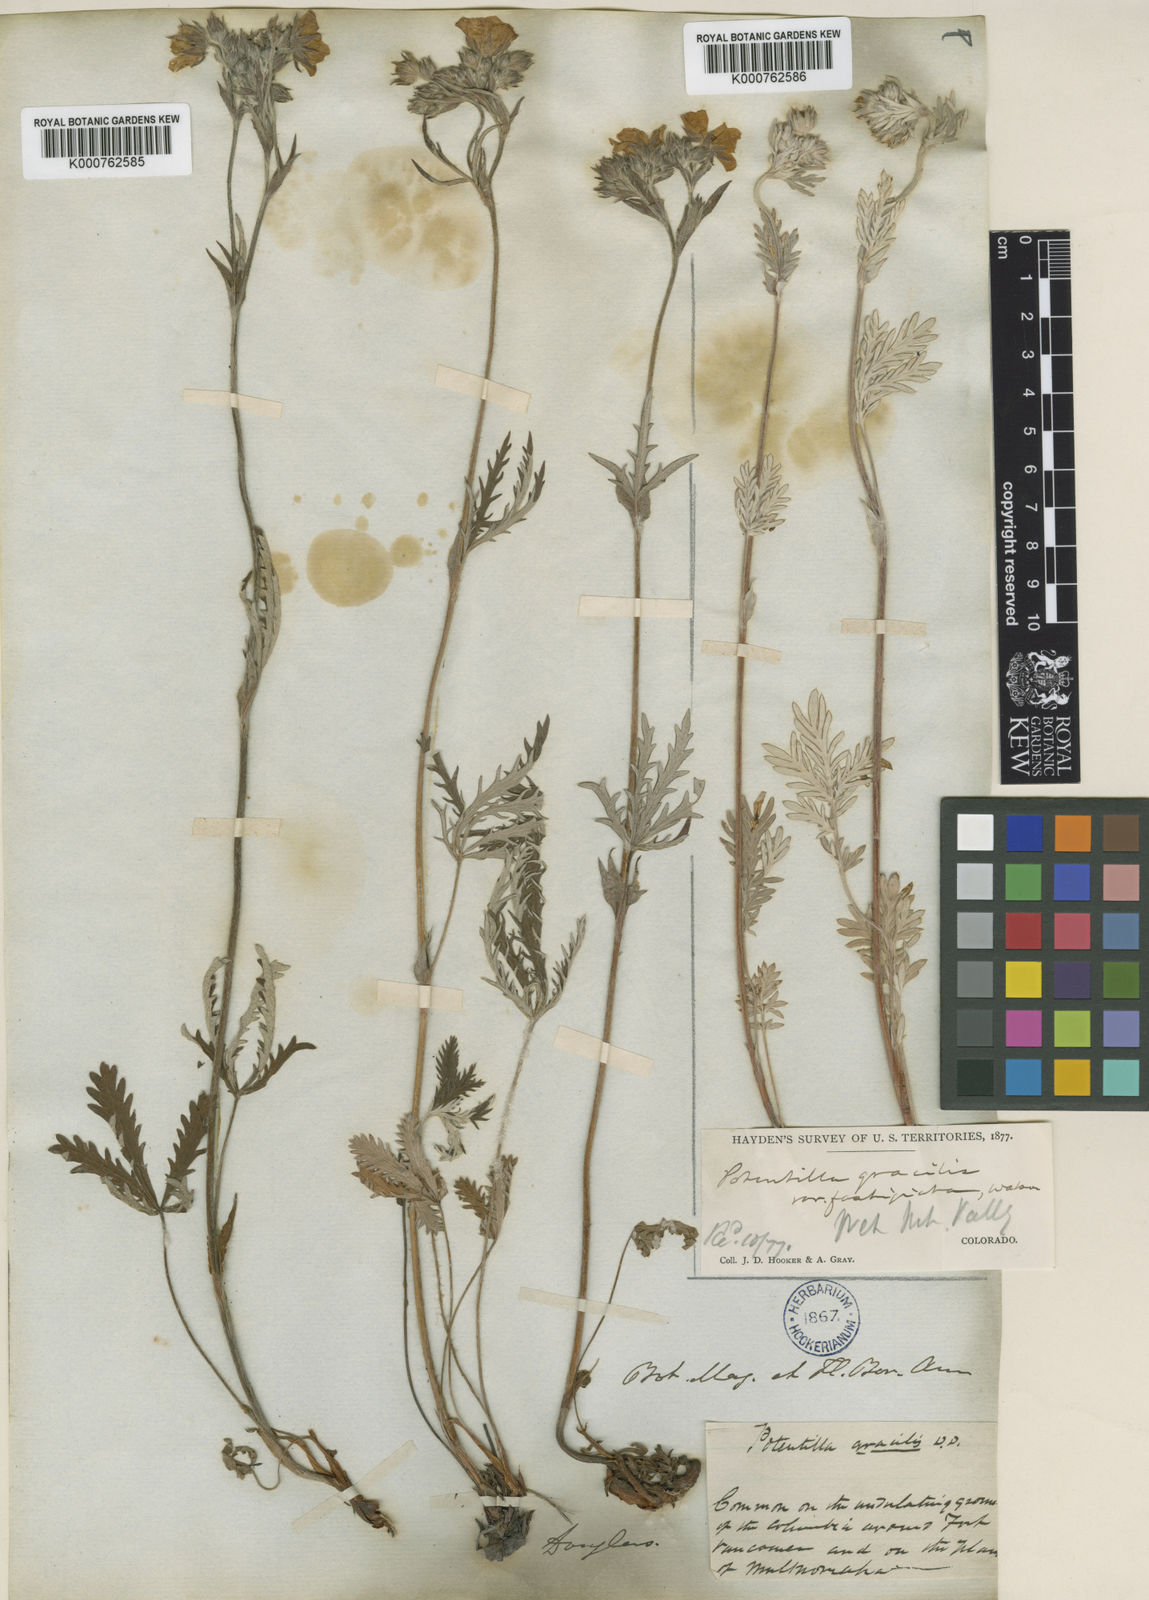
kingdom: Plantae
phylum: Tracheophyta
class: Magnoliopsida
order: Rosales
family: Rosaceae
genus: Potentilla
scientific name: Potentilla gracilis
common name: Graceful cinquefoil
